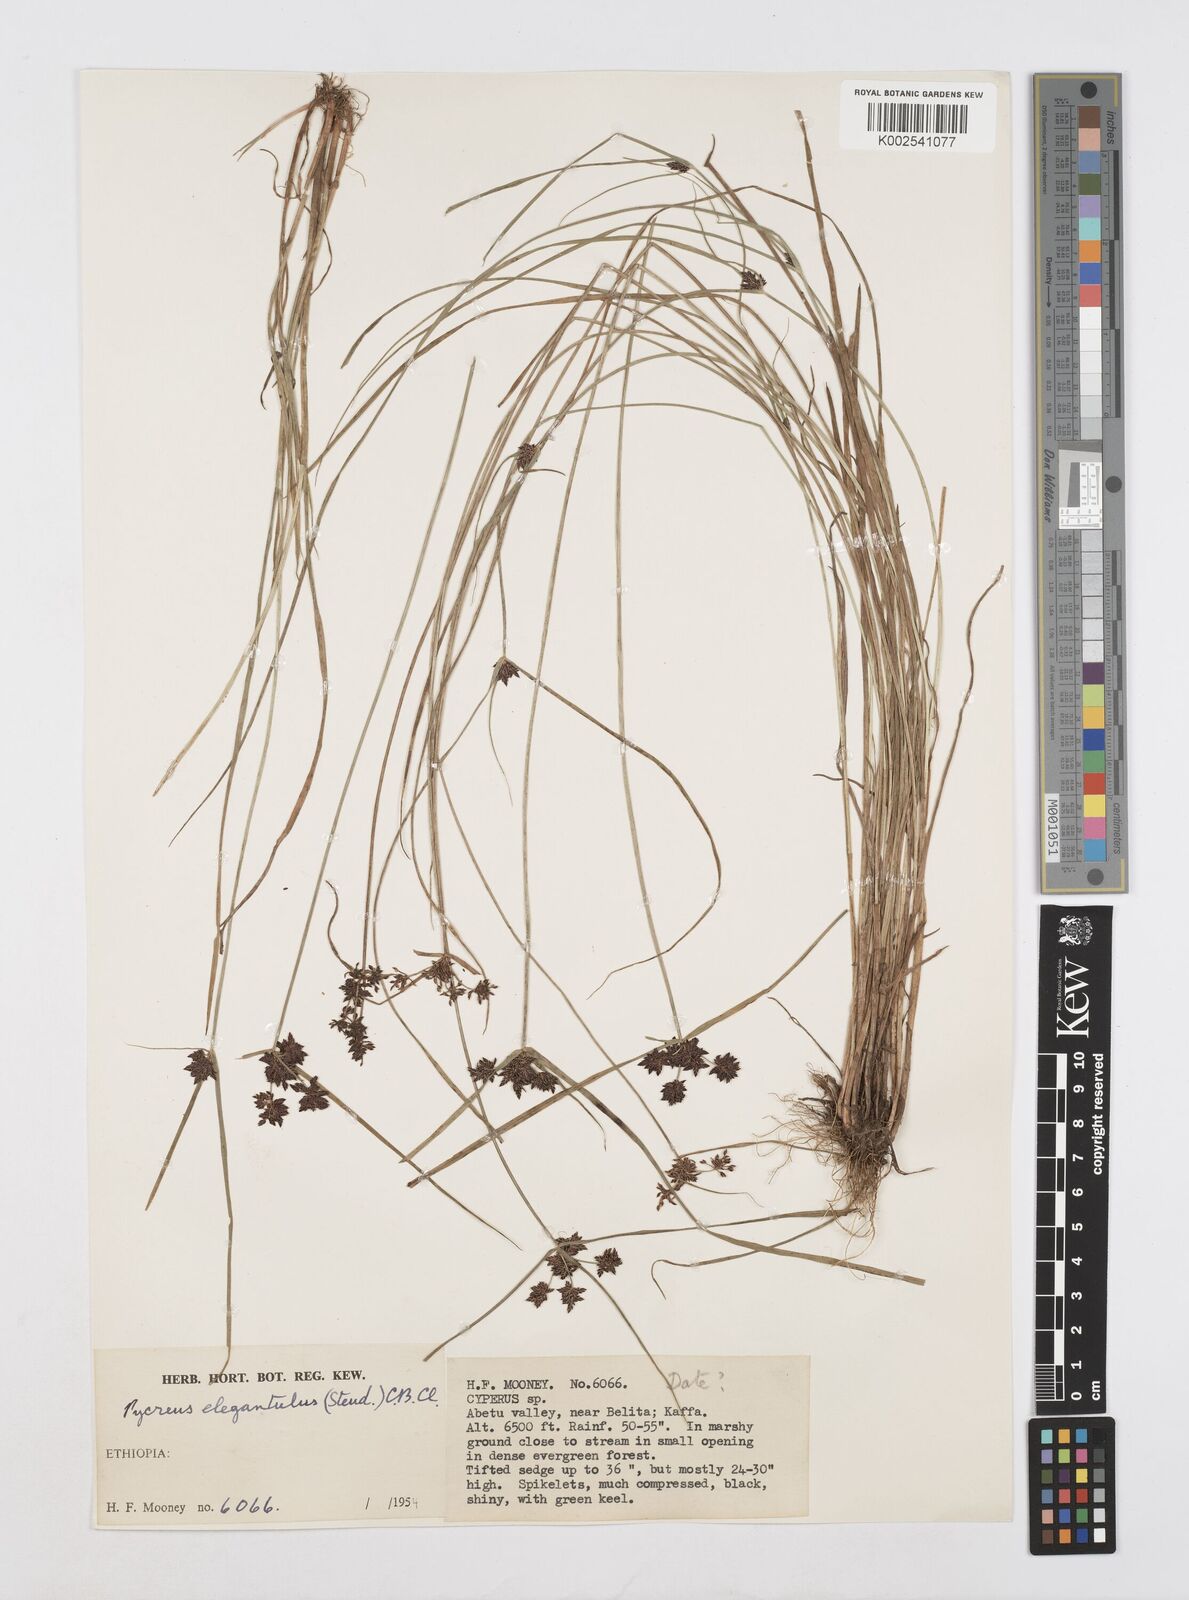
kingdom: Plantae
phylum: Tracheophyta
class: Liliopsida
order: Poales
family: Cyperaceae
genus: Cyperus
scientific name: Cyperus elegantulus
